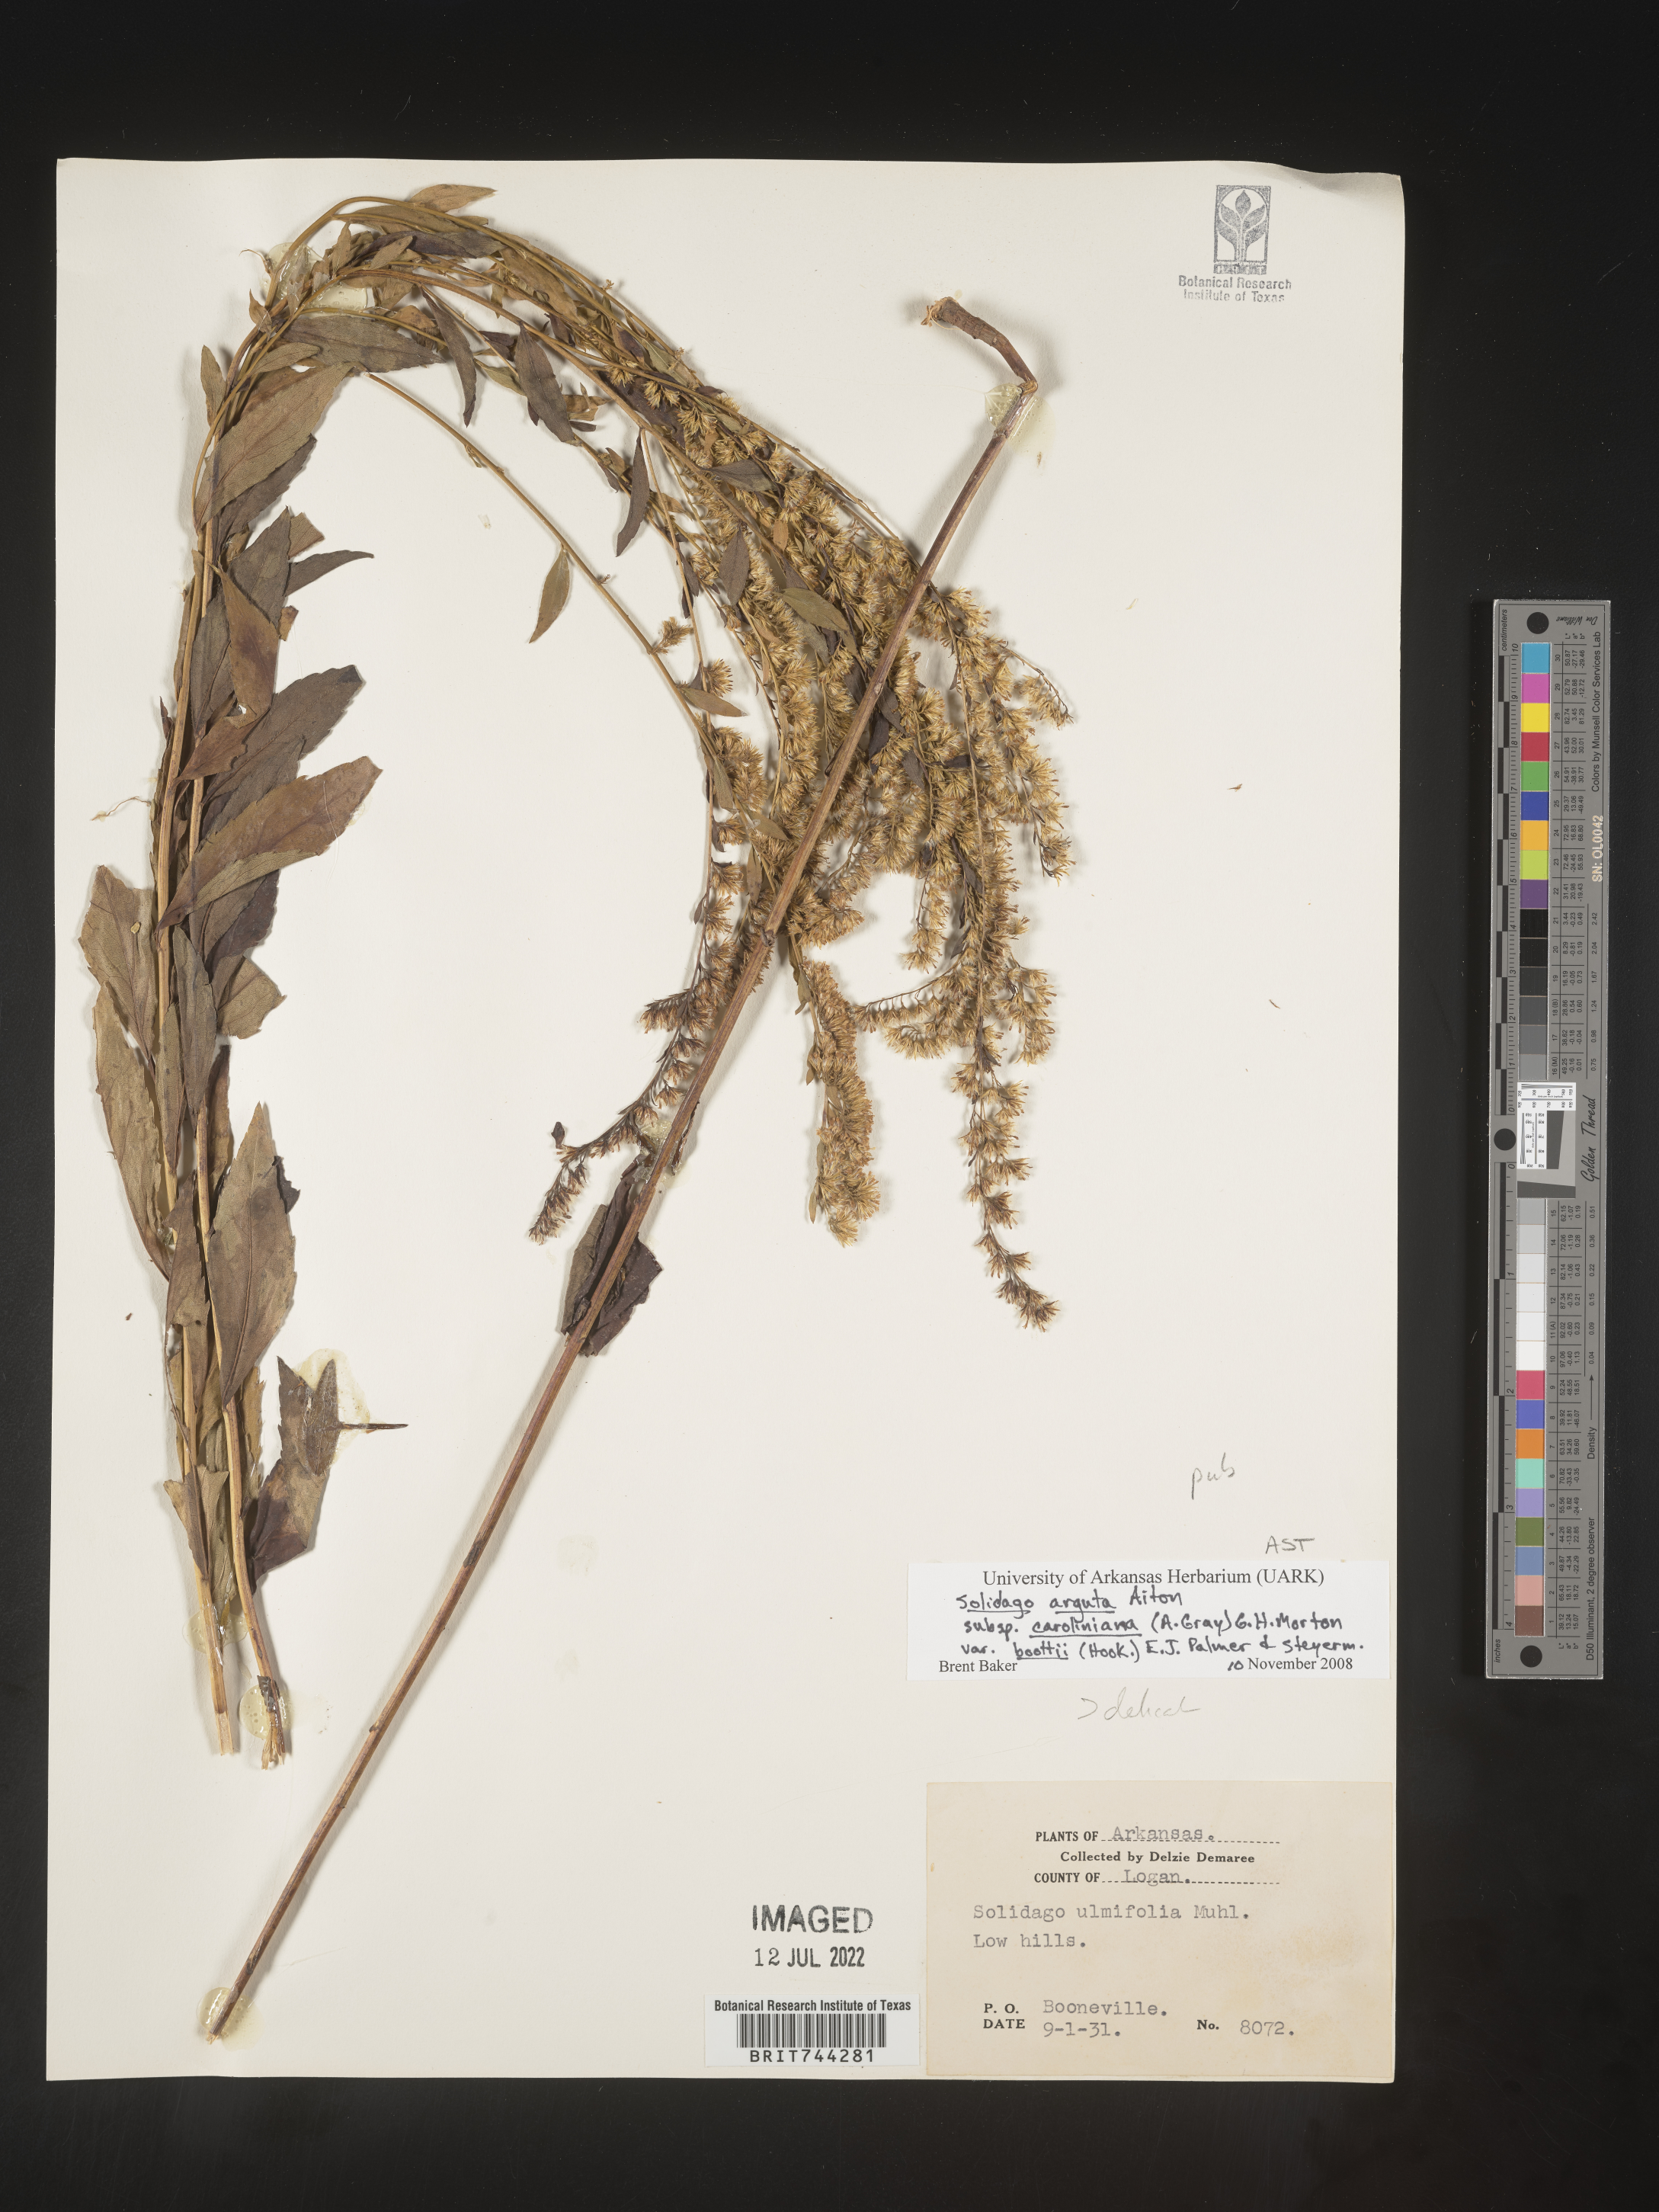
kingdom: Plantae
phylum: Tracheophyta
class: Magnoliopsida
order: Asterales
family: Asteraceae
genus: Solidago
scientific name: Solidago arguta
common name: Atlantic goldenrod
